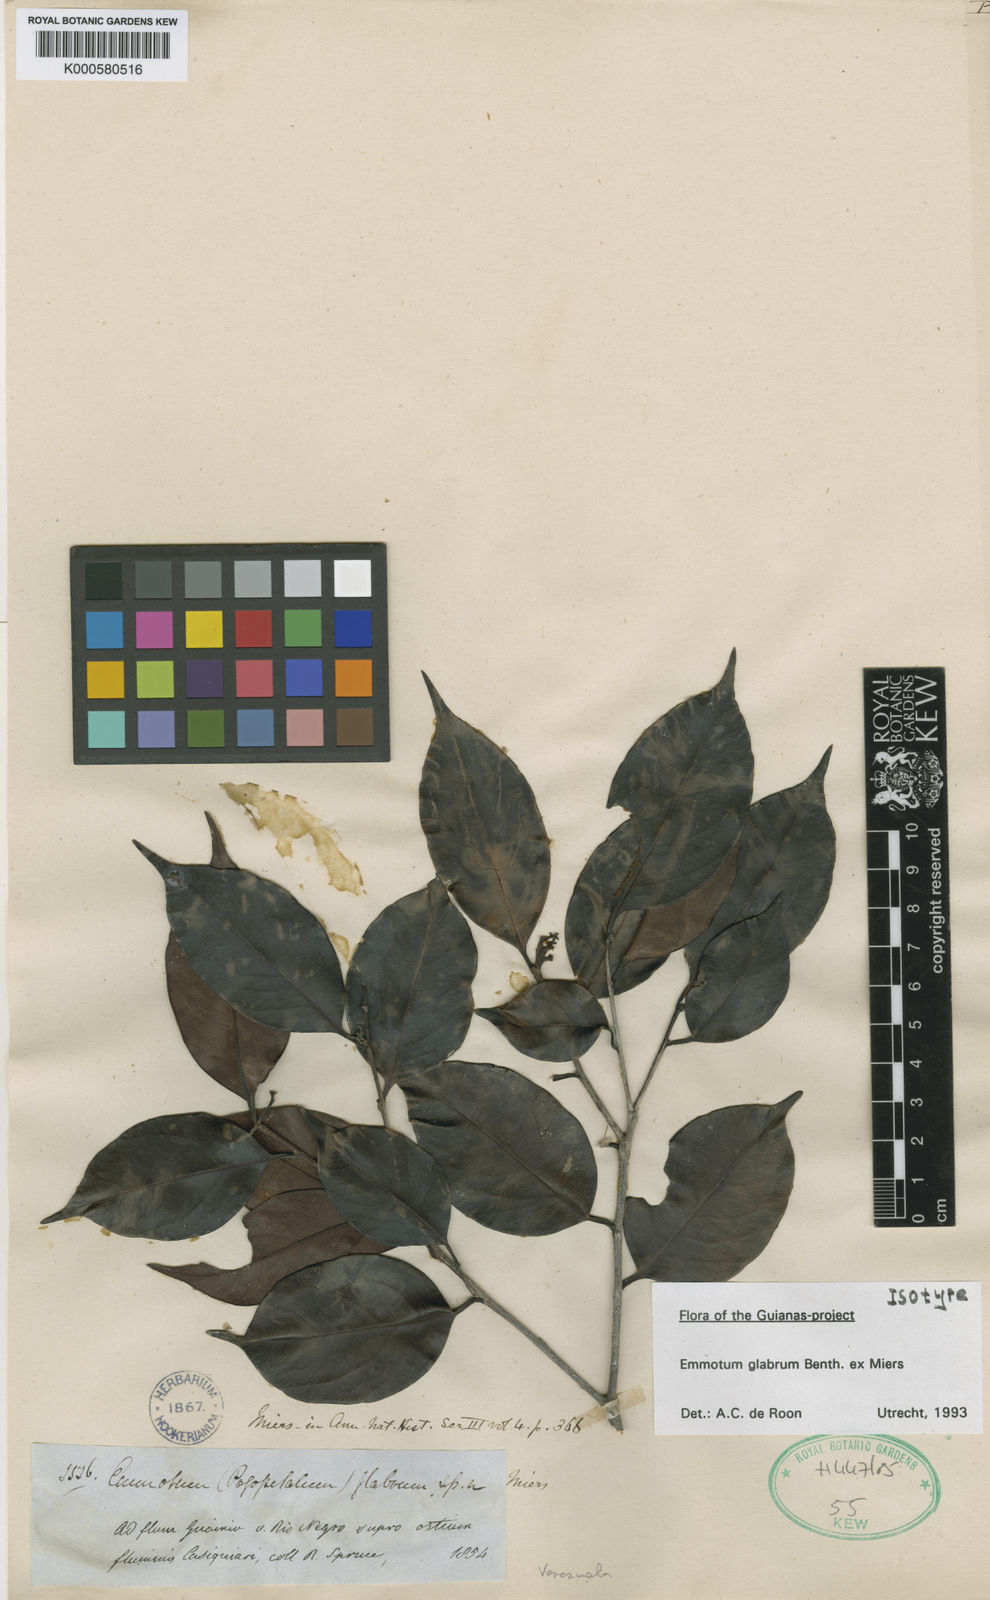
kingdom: Plantae
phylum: Tracheophyta
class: Magnoliopsida
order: Metteniusales
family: Metteniusaceae
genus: Emmotum
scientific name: Emmotum glabrum
